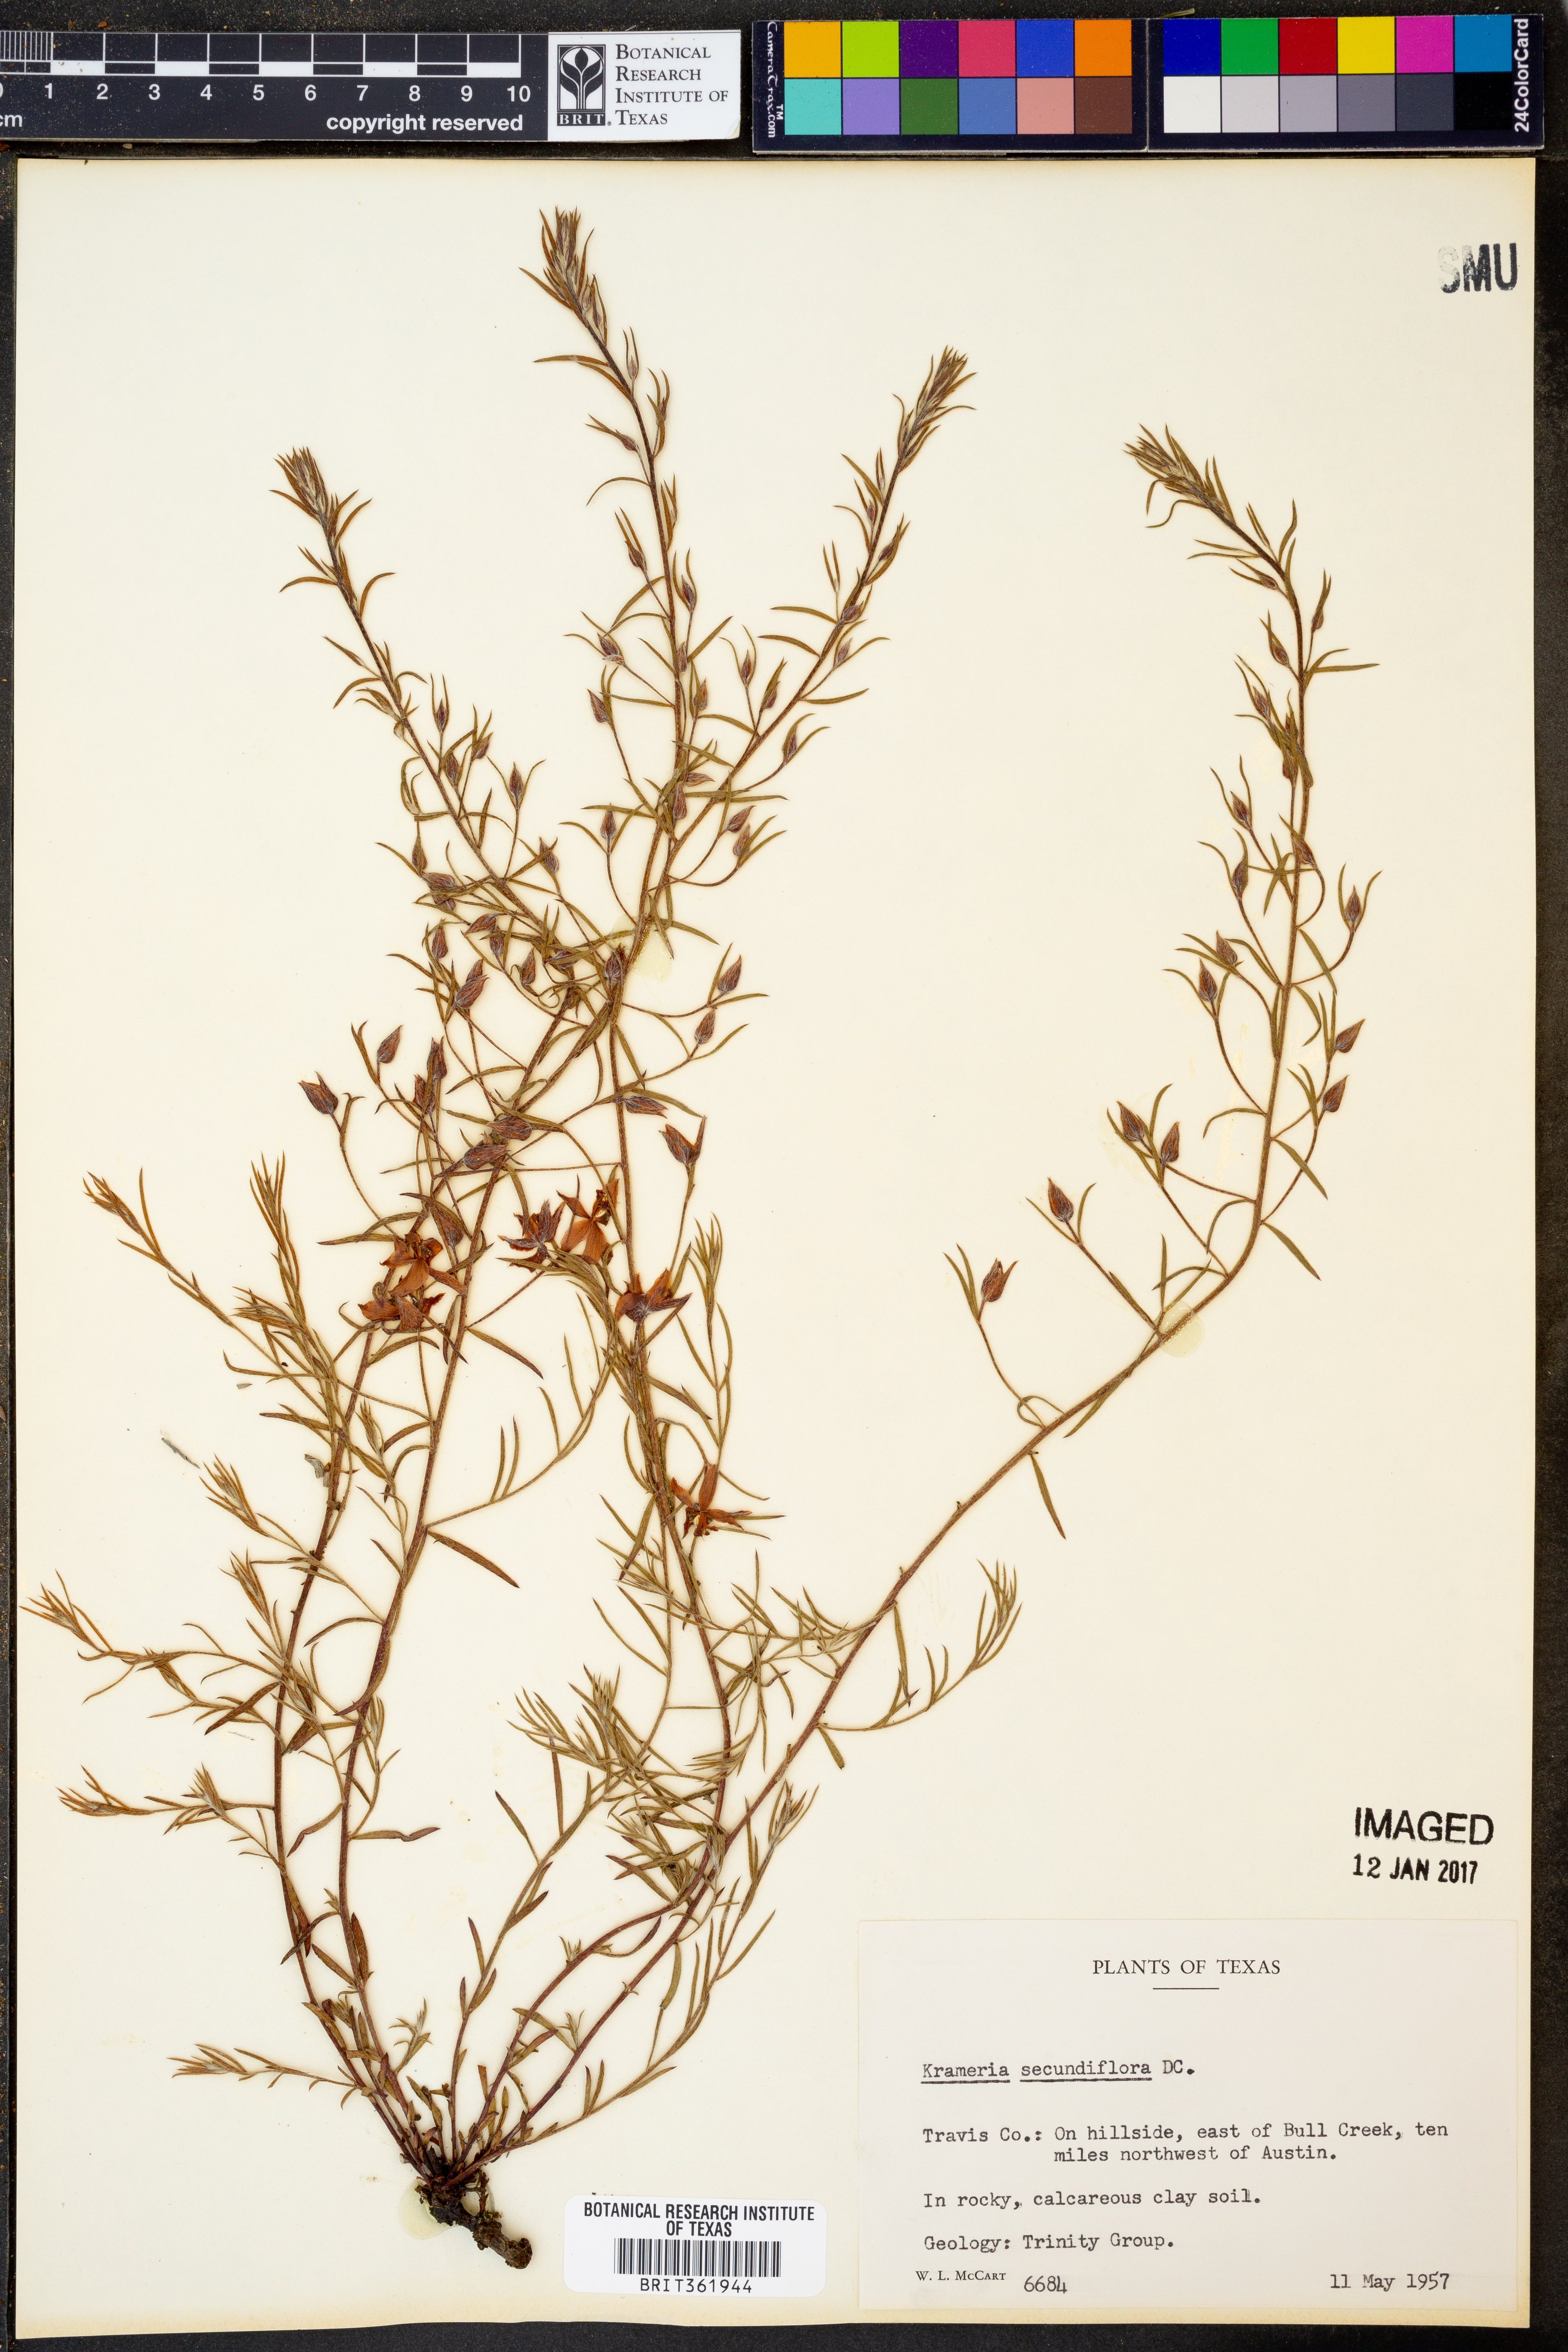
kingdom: Plantae
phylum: Tracheophyta
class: Magnoliopsida
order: Zygophyllales
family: Krameriaceae
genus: Krameria
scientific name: Krameria secundiflora
